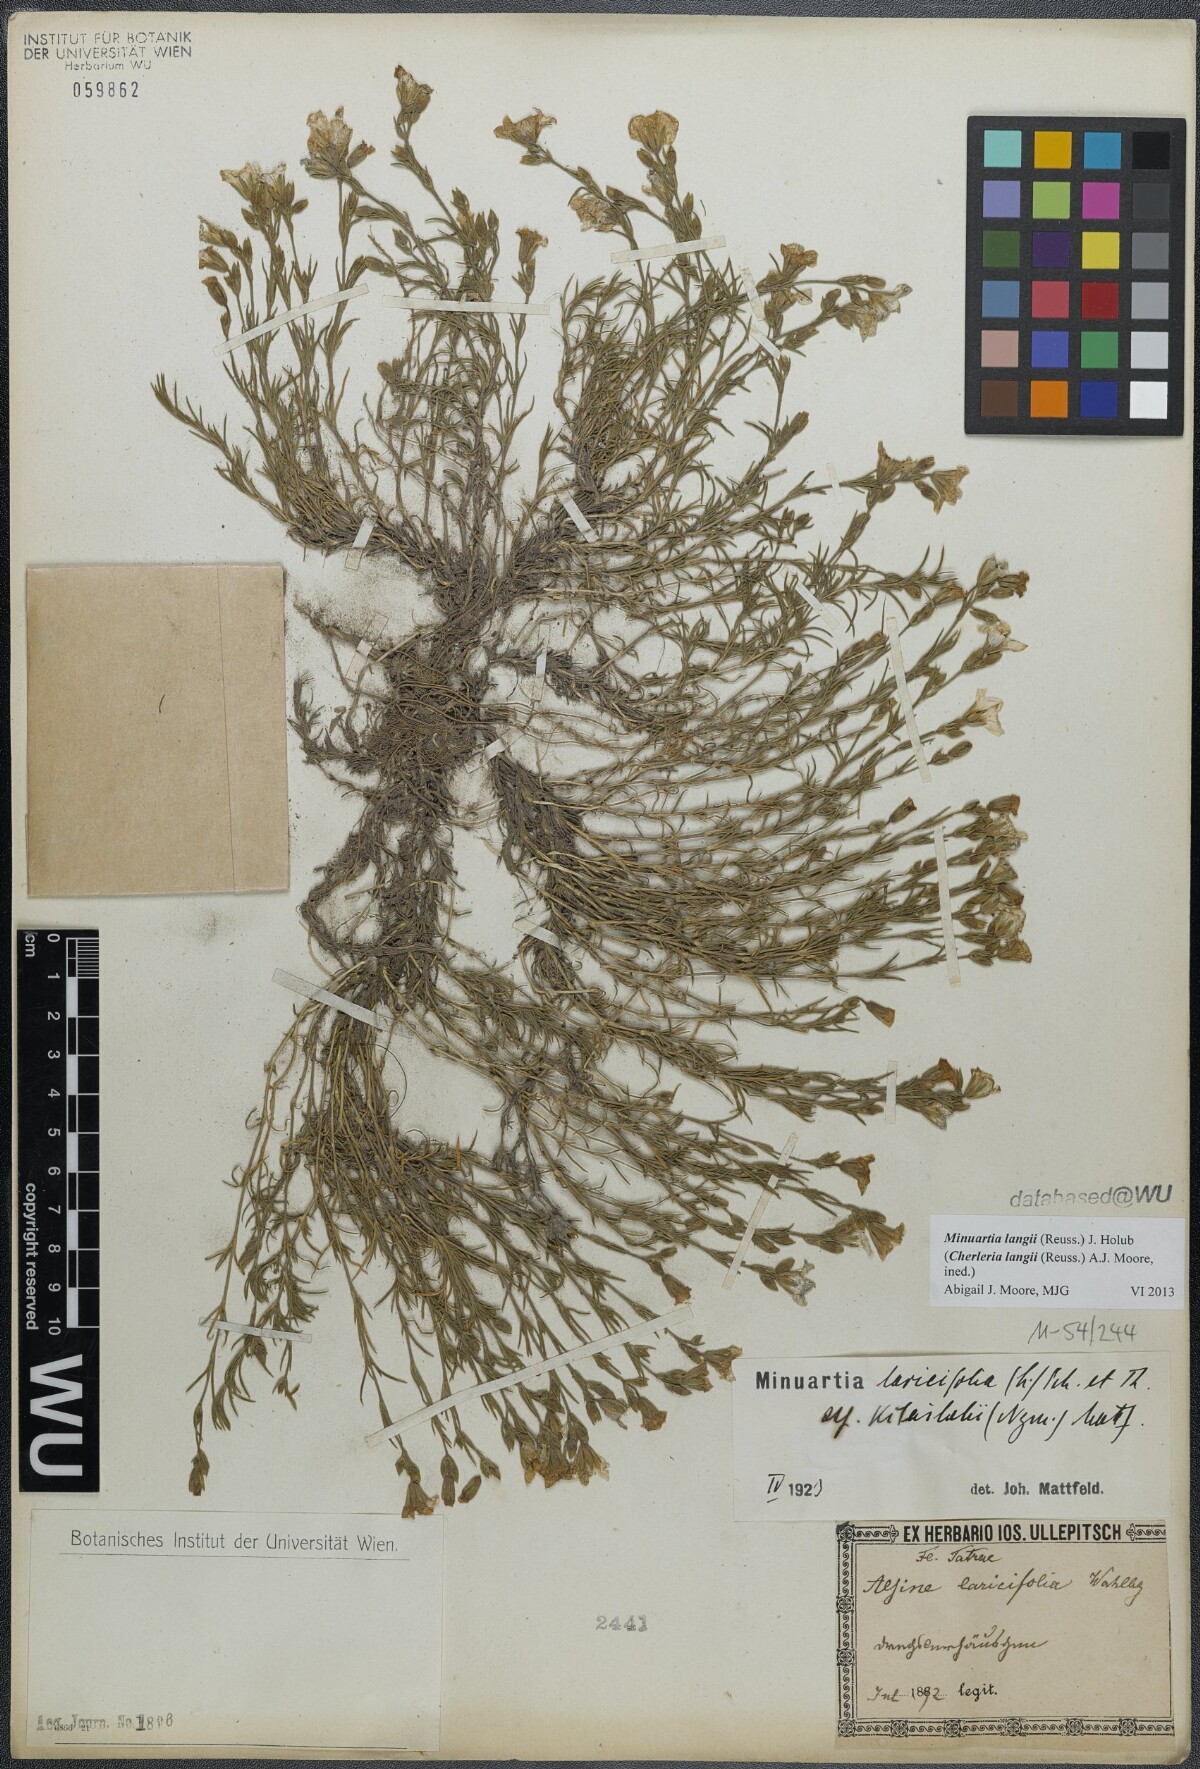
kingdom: Plantae
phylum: Tracheophyta
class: Magnoliopsida
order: Caryophyllales
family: Caryophyllaceae
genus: Cherleria
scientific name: Cherleria langii
